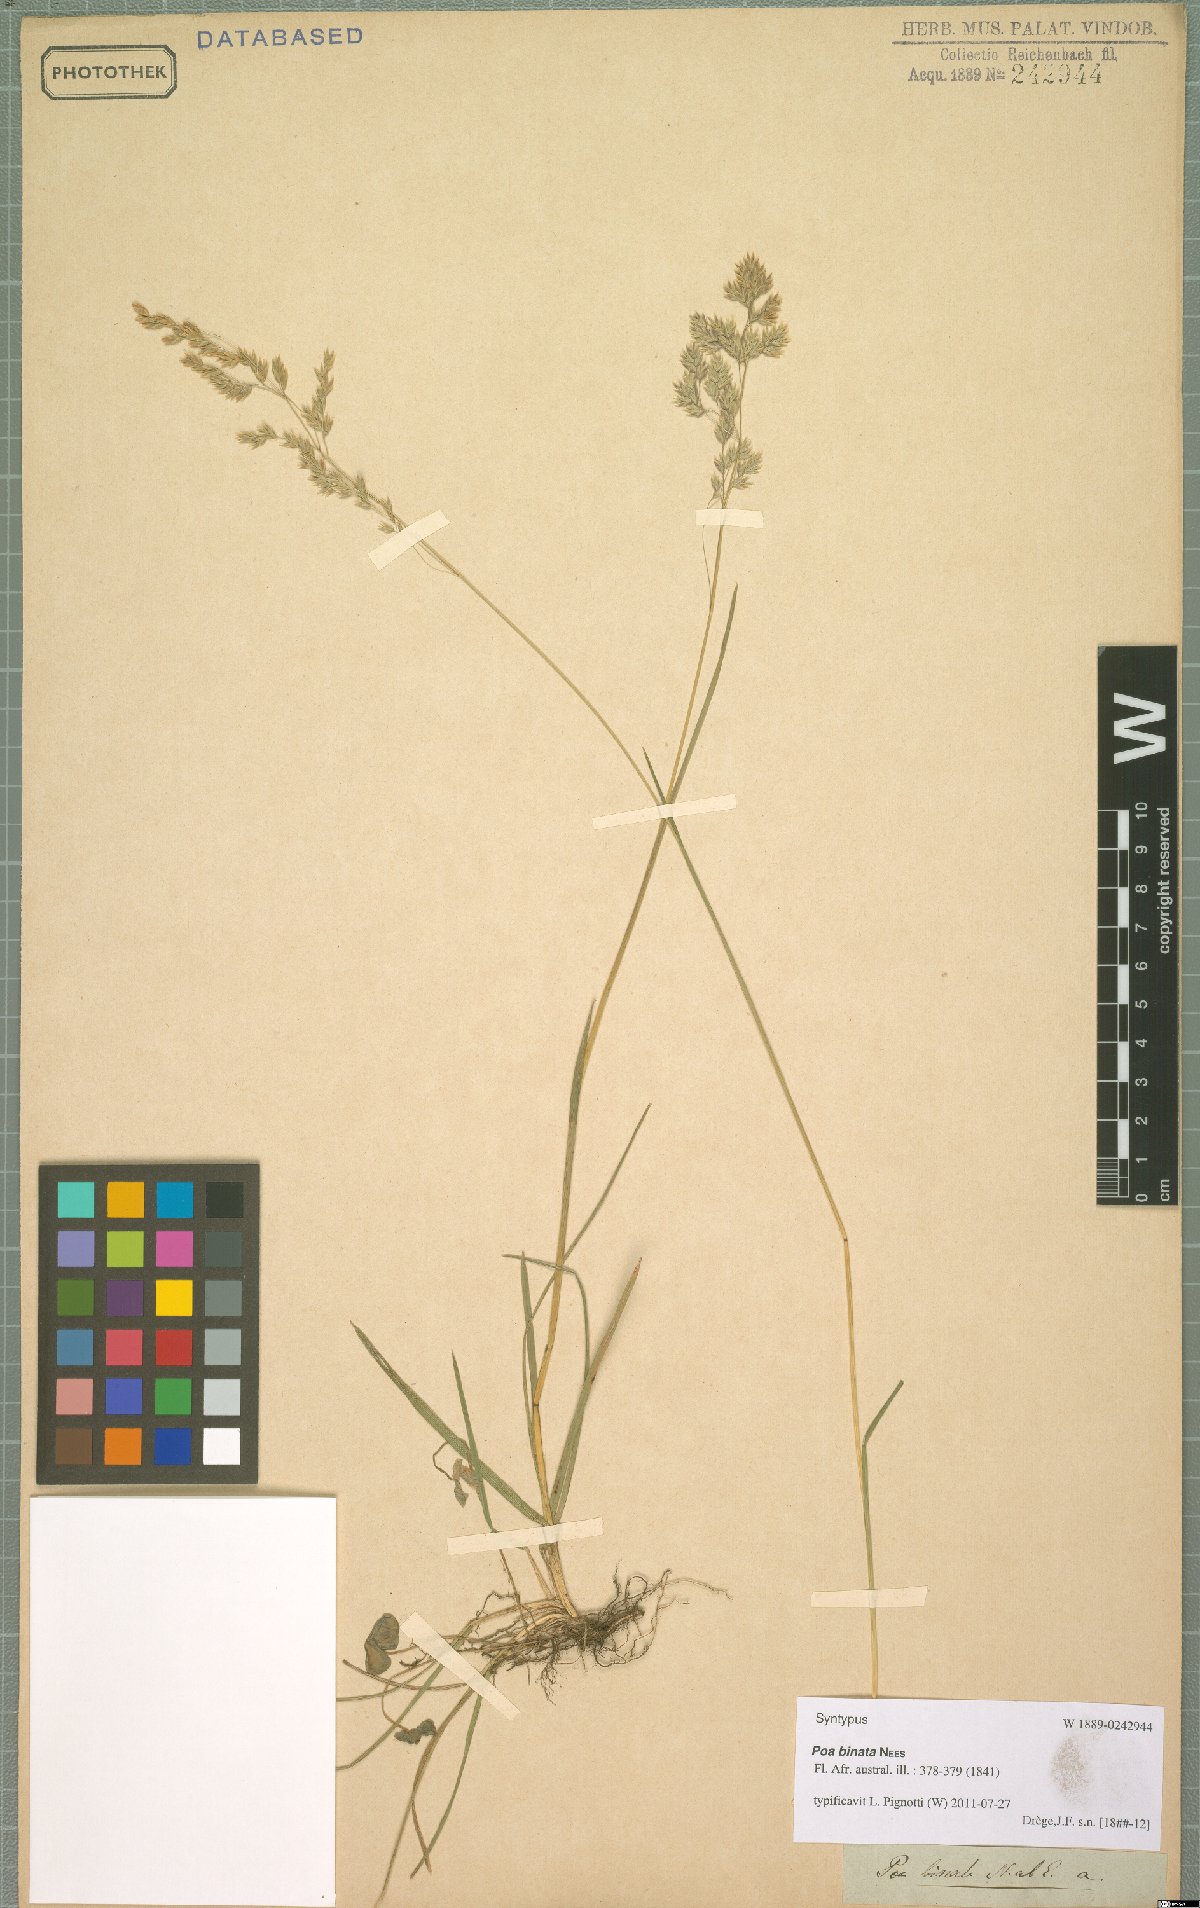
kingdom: Plantae
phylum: Tracheophyta
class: Liliopsida
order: Poales
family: Poaceae
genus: Poa
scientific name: Poa binata
